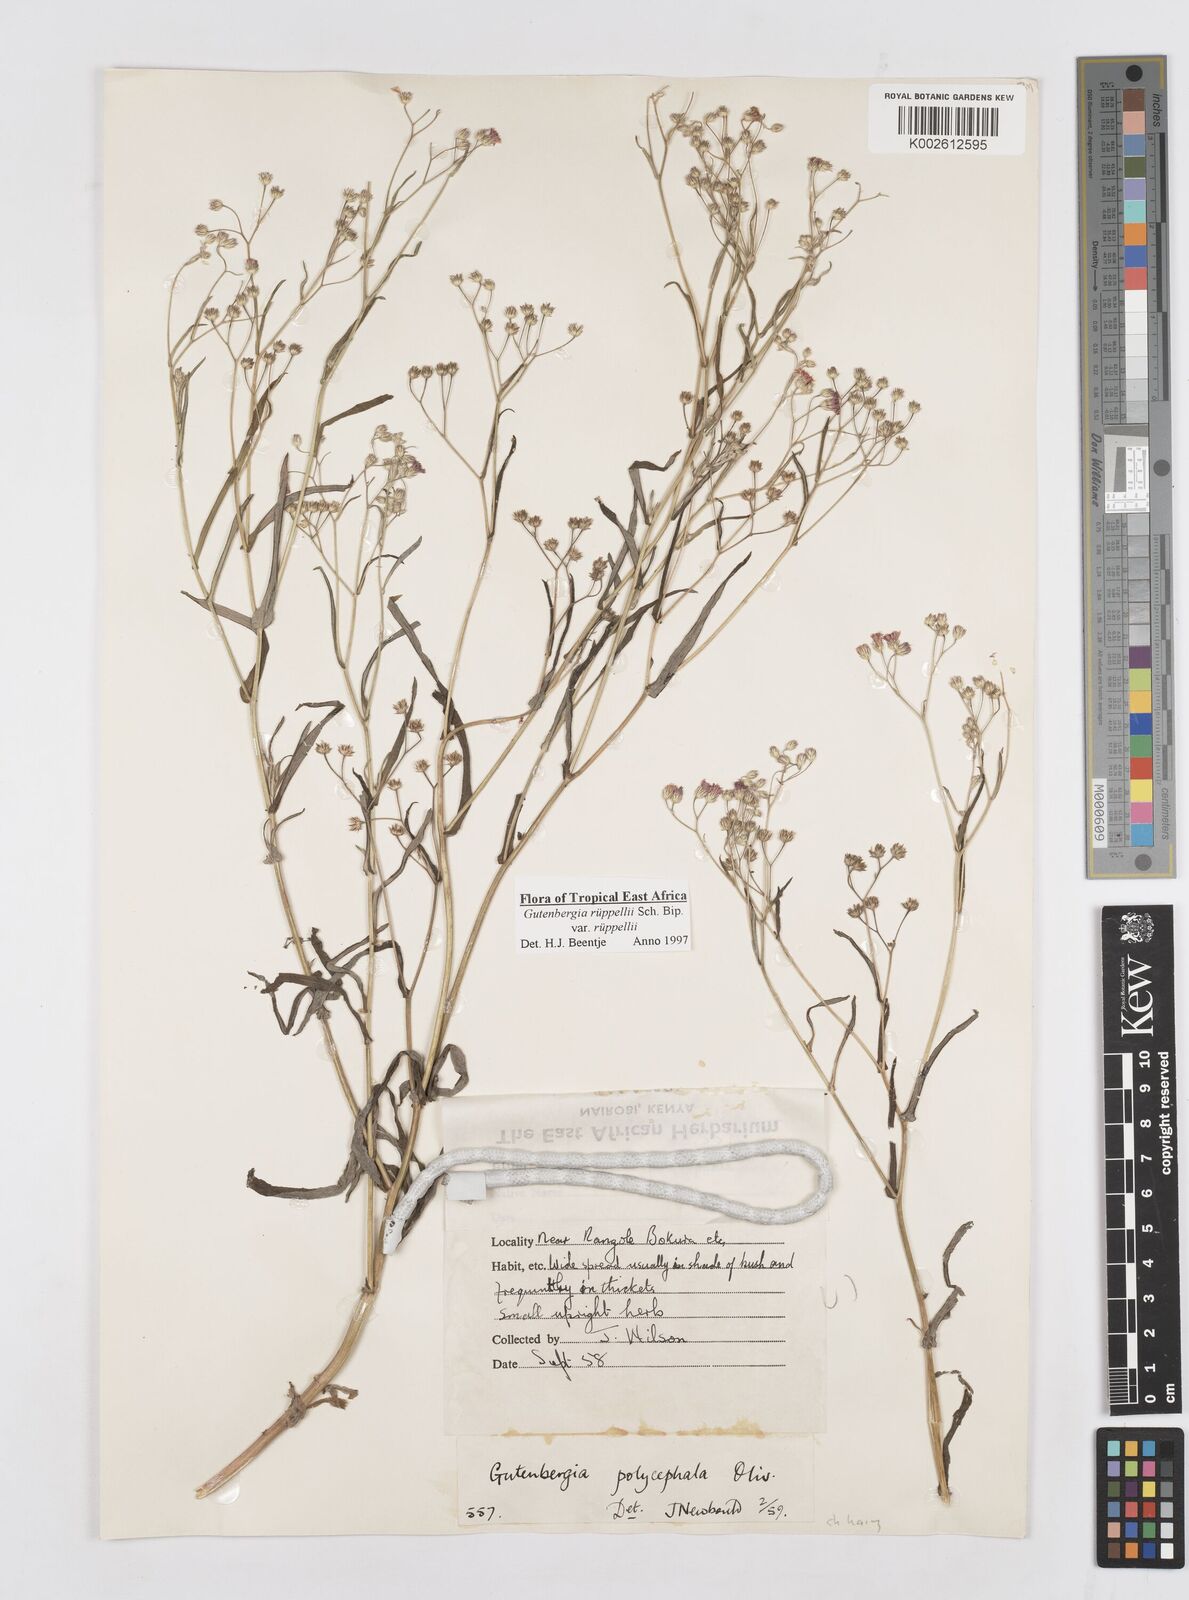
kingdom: Plantae
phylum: Tracheophyta
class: Magnoliopsida
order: Asterales
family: Asteraceae
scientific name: Asteraceae
